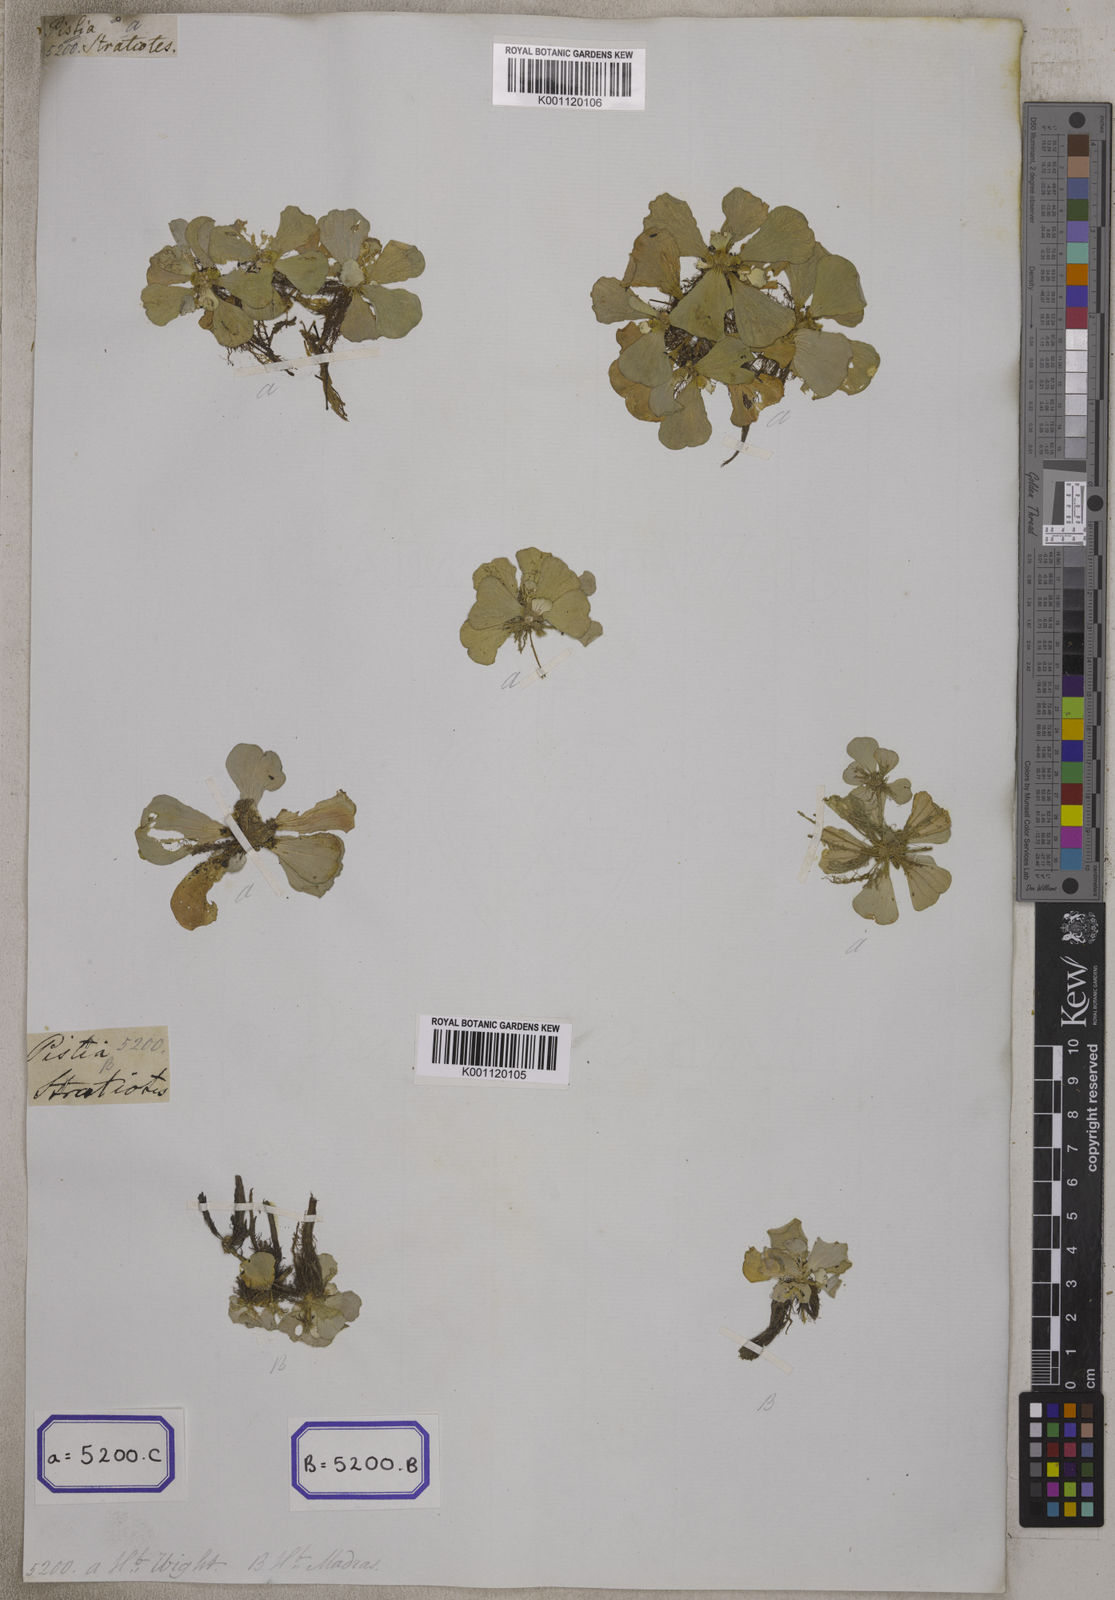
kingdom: Plantae
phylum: Tracheophyta
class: Liliopsida
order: Alismatales
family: Araceae
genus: Pistia
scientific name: Pistia stratiotes
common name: Water lettuce
